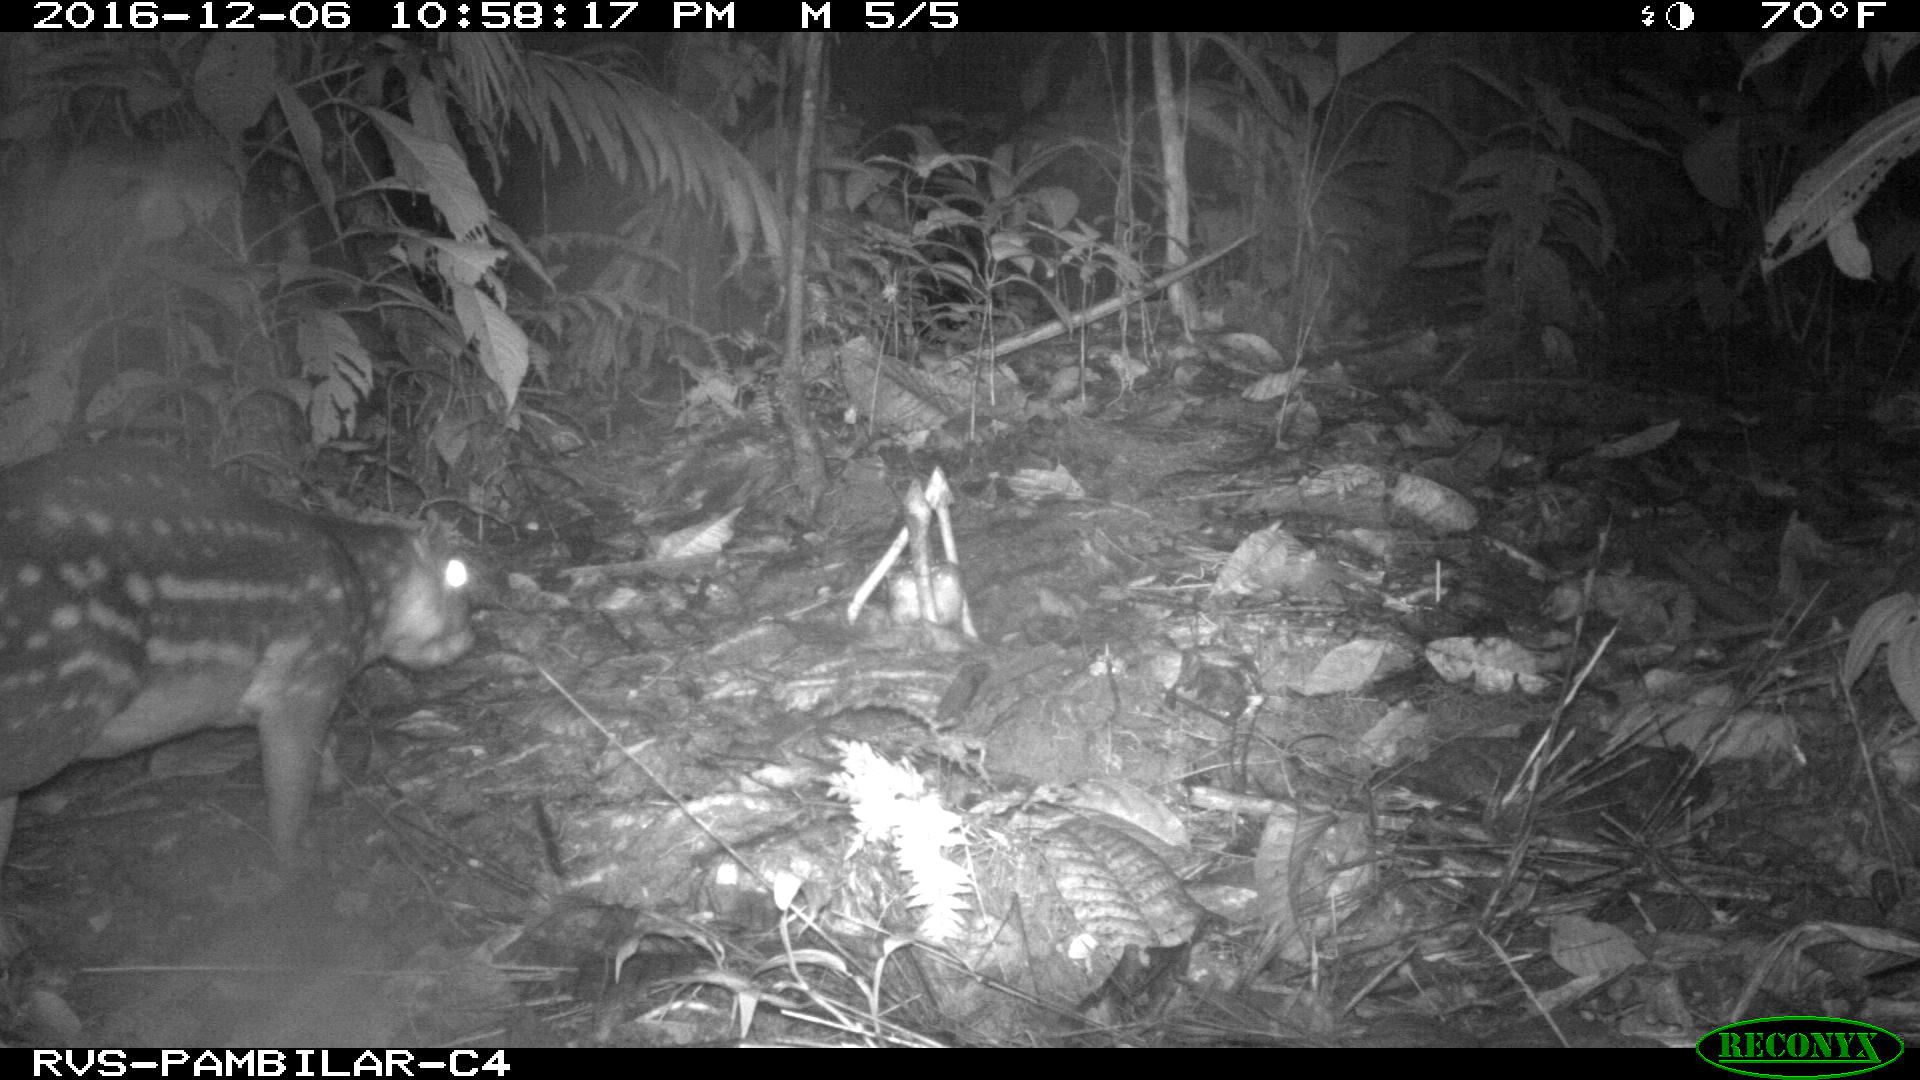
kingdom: Animalia
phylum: Chordata
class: Mammalia
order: Rodentia
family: Cuniculidae
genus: Cuniculus
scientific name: Cuniculus paca
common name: Lowland paca
